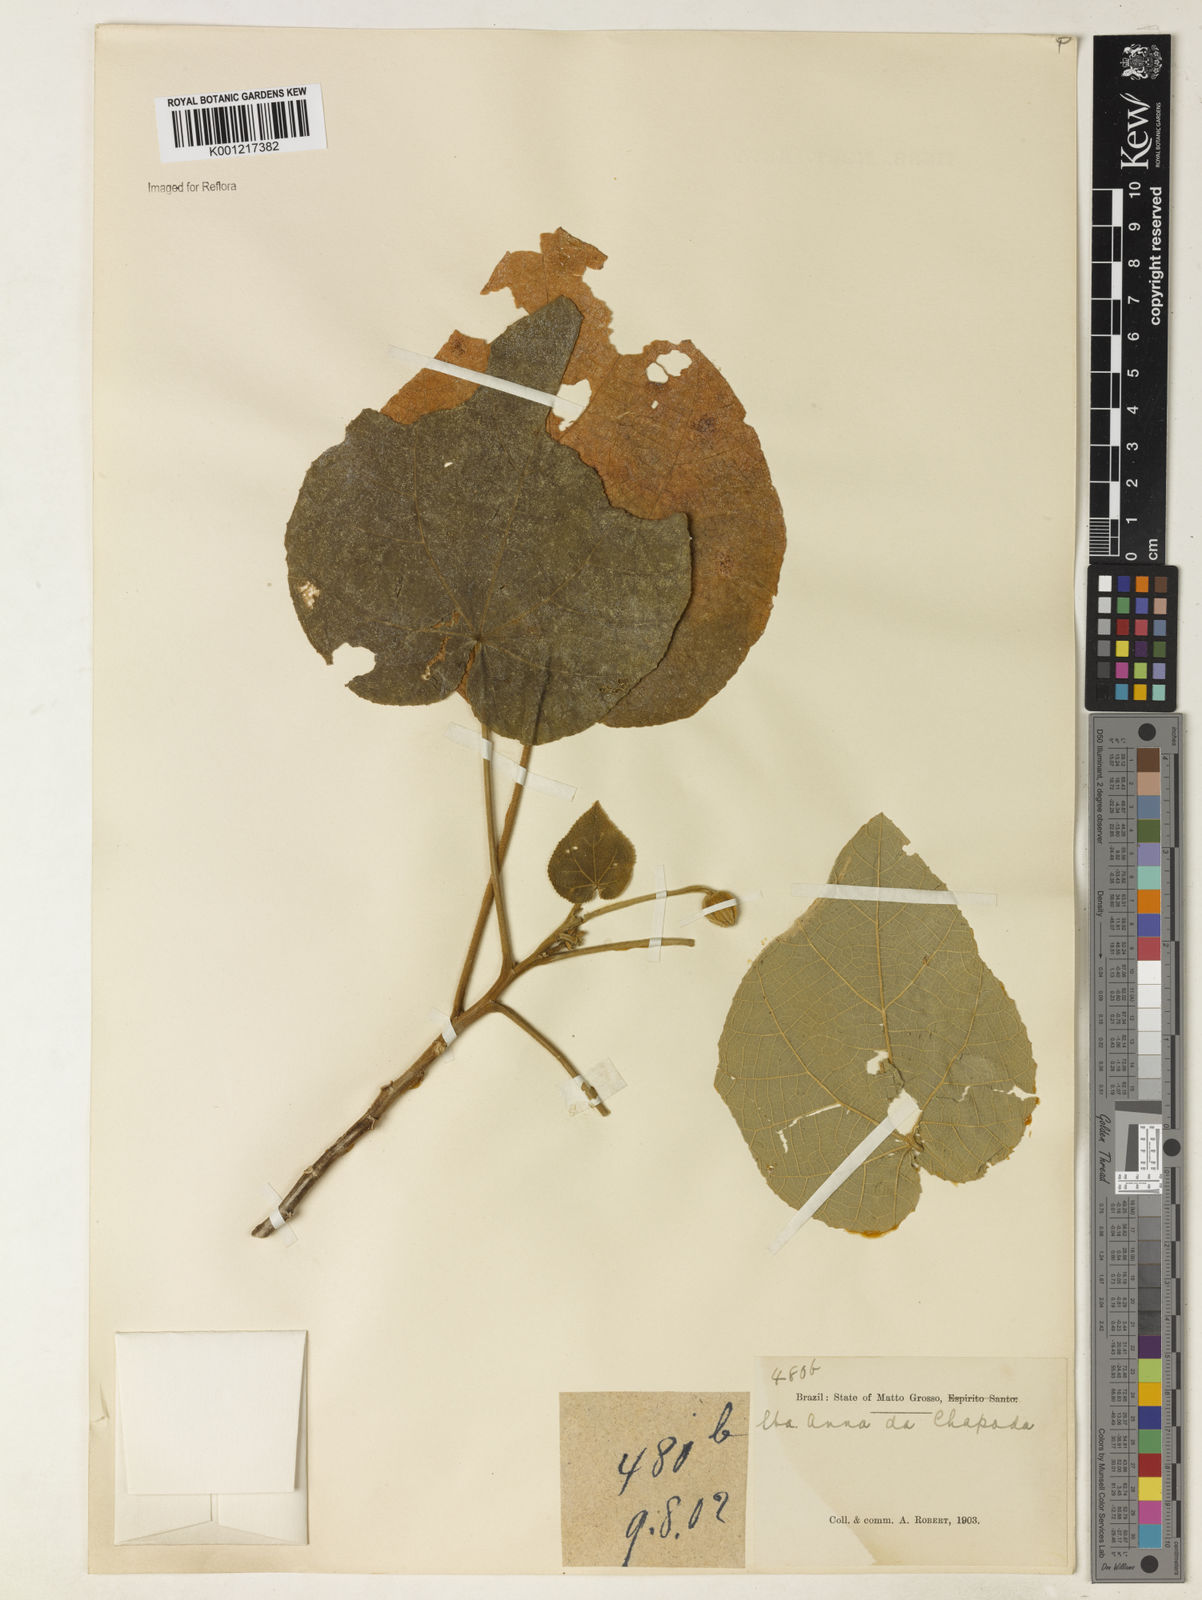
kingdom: Plantae
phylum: Tracheophyta
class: Magnoliopsida
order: Malvales
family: Malvaceae
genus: Abutilon
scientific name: Abutilon
